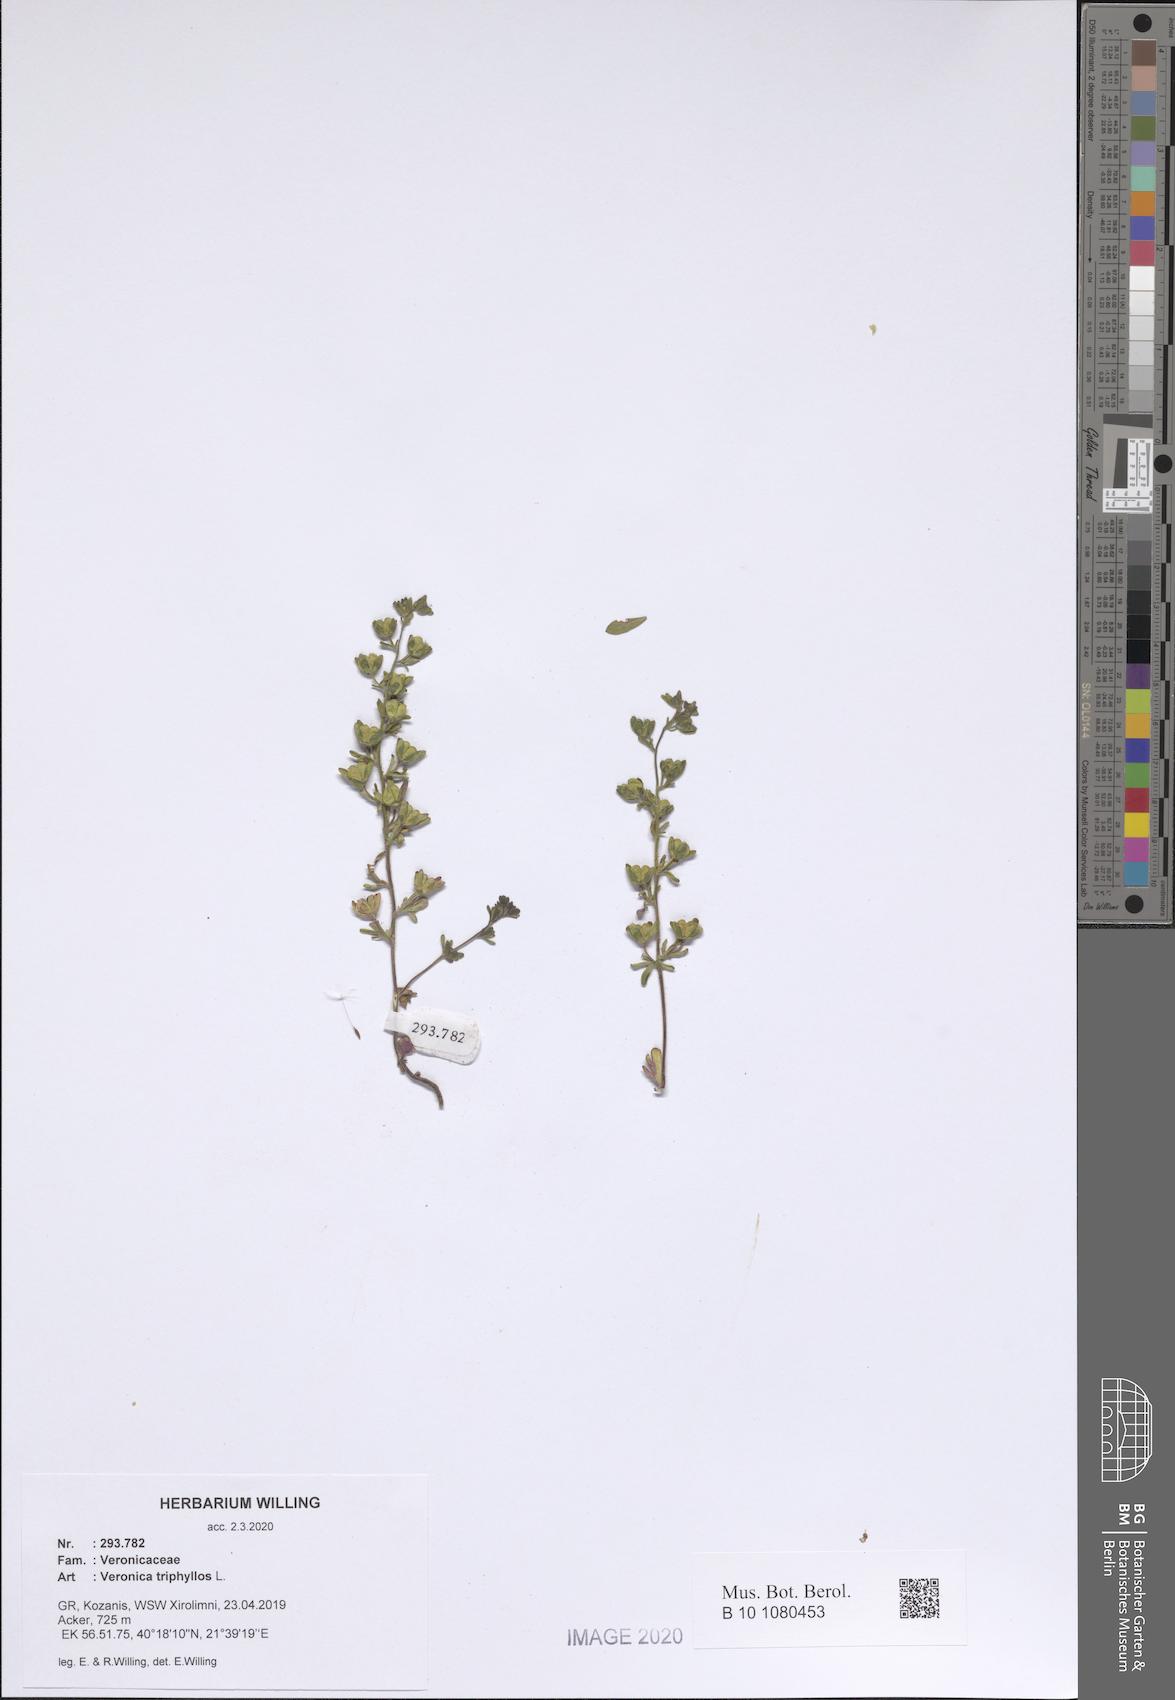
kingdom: Plantae
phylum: Tracheophyta
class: Magnoliopsida
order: Lamiales
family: Plantaginaceae
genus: Veronica
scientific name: Veronica triphyllos
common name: Fingered speedwell
